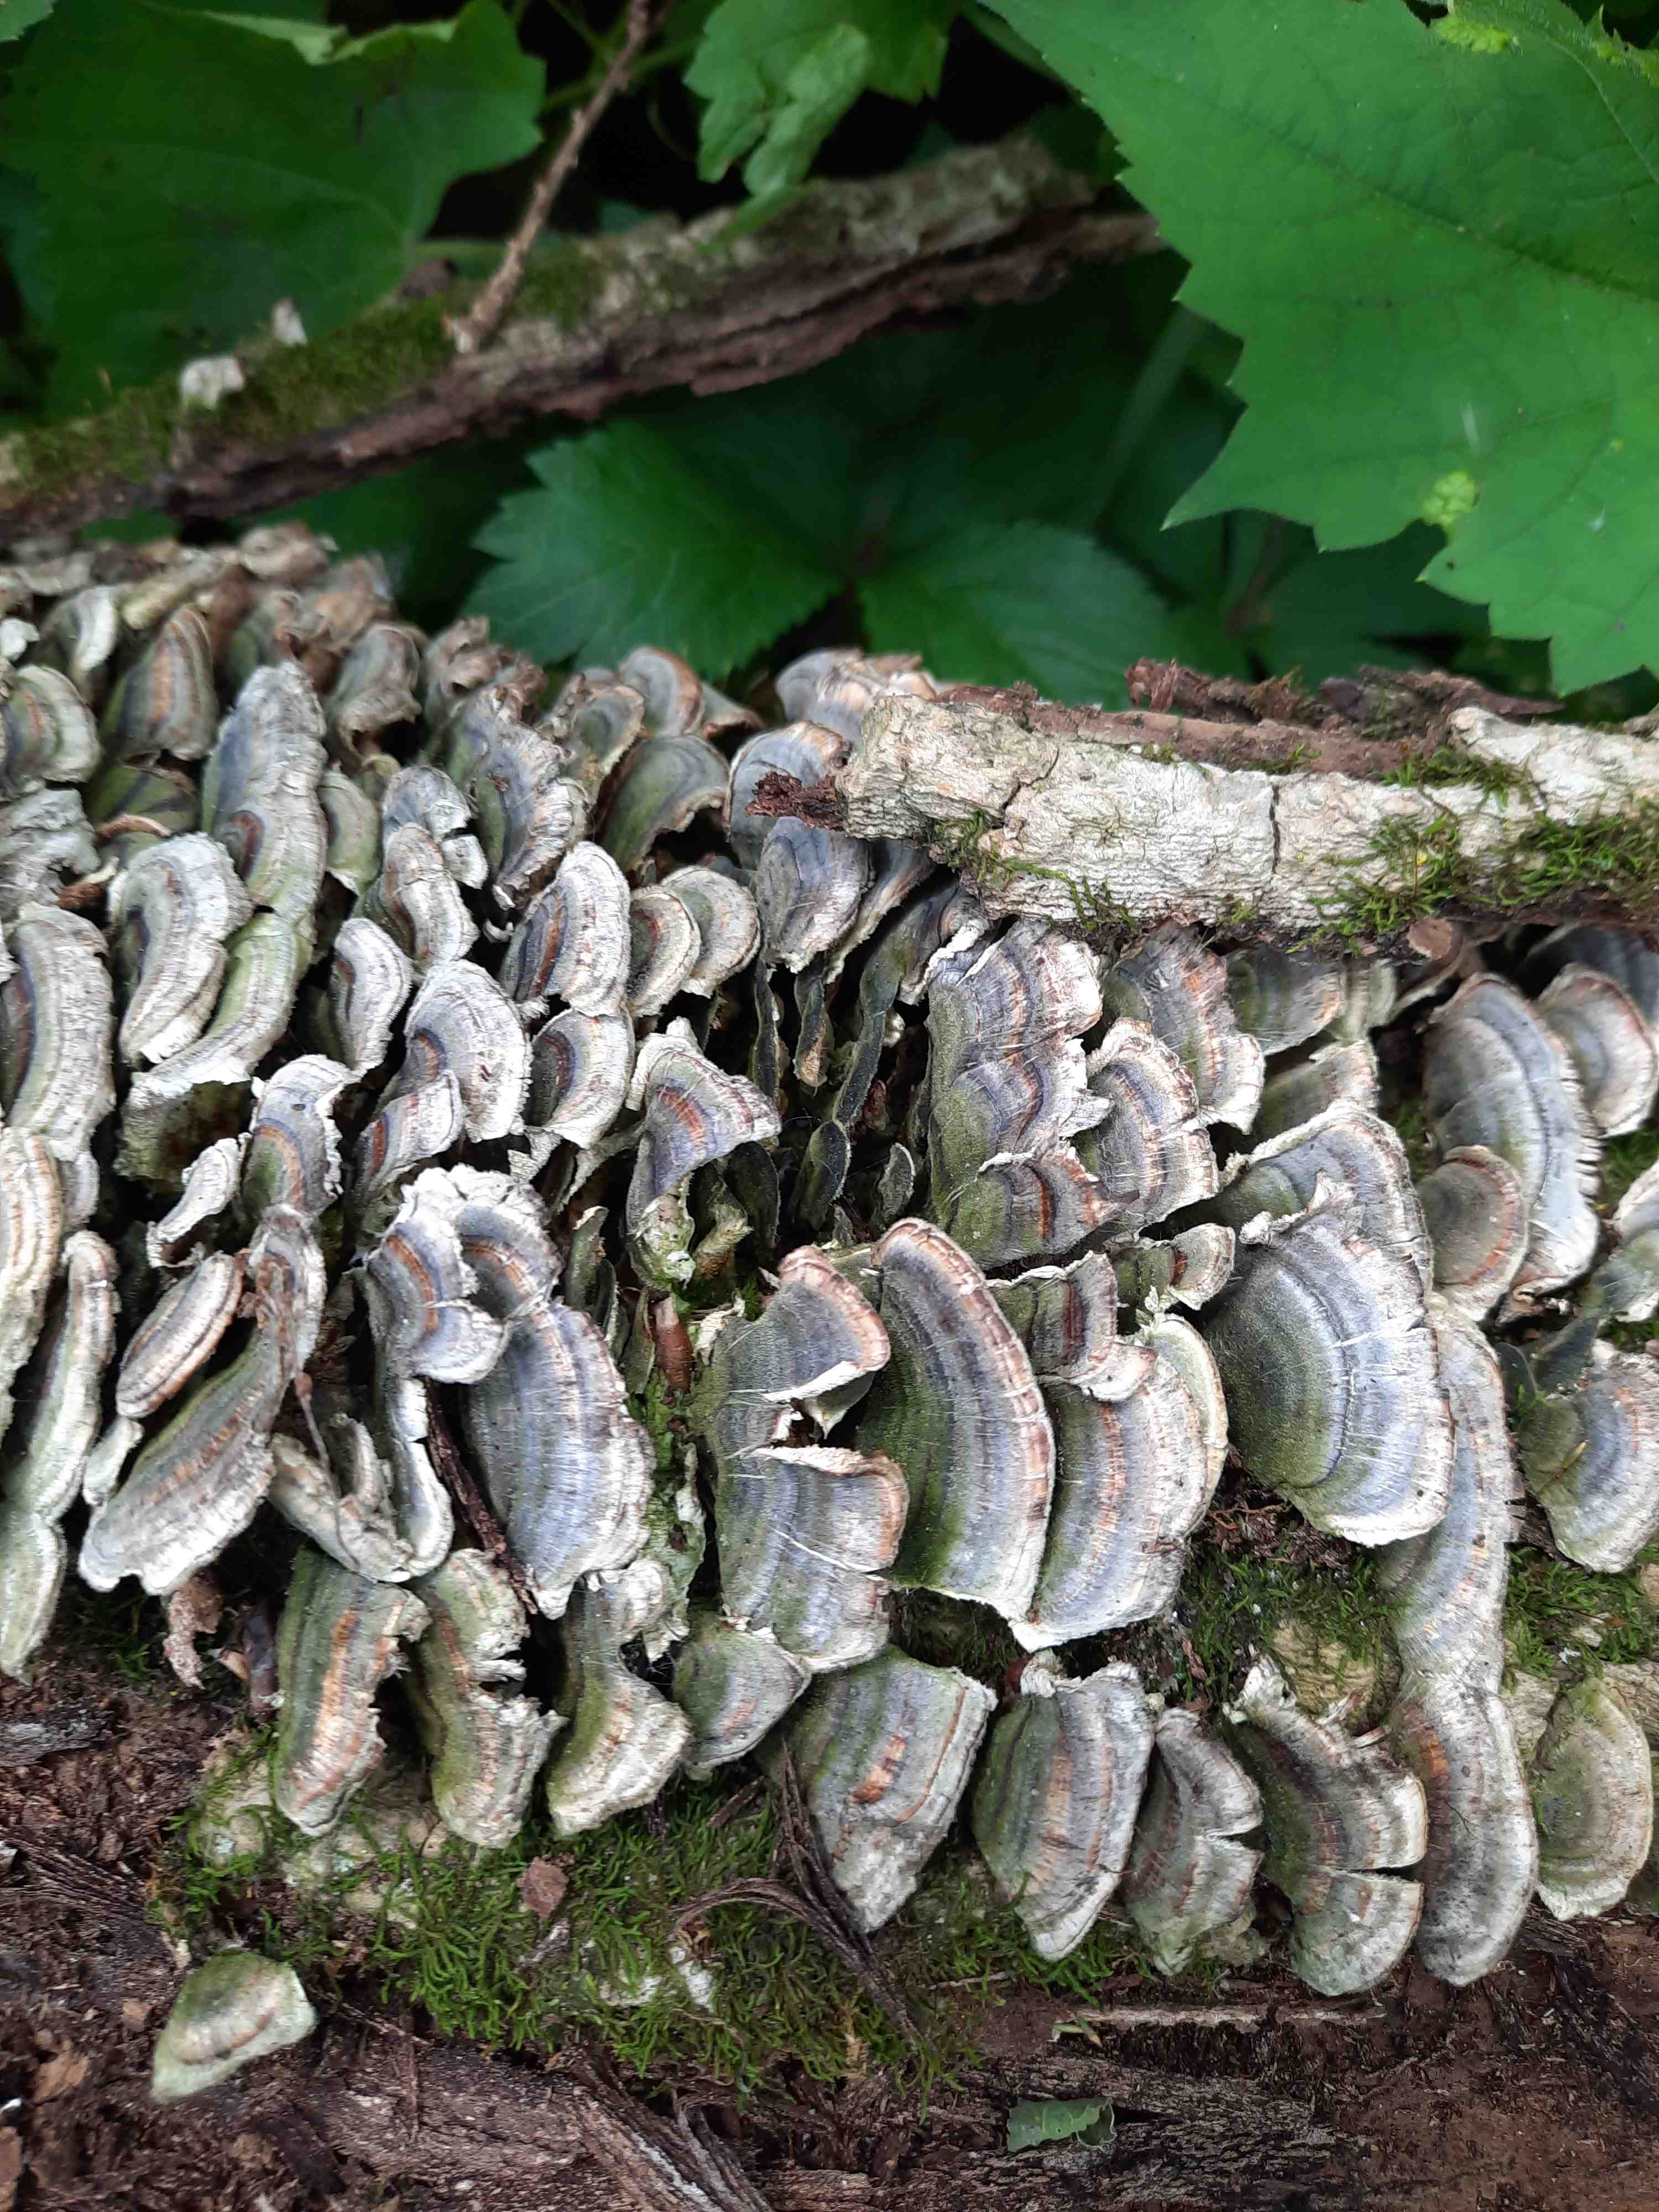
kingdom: Fungi
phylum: Basidiomycota
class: Agaricomycetes
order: Polyporales
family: Polyporaceae
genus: Trametes
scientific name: Trametes versicolor
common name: broget læderporesvamp
